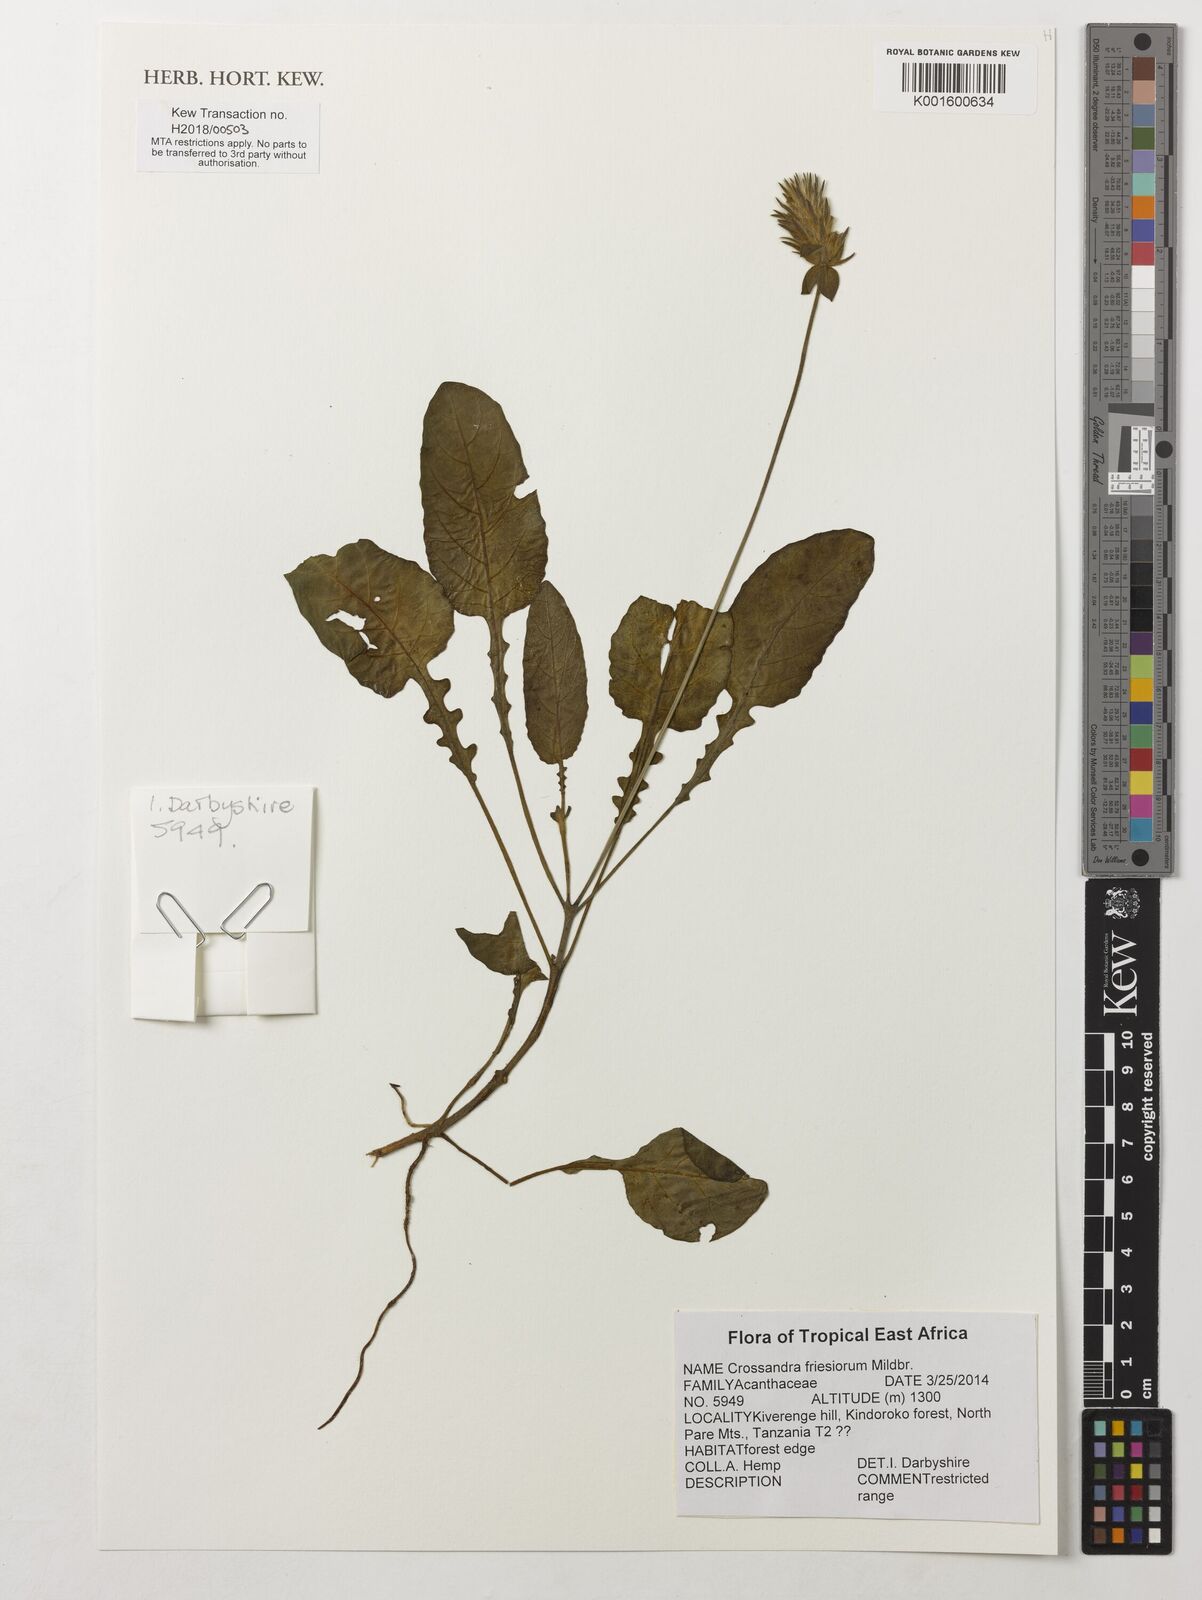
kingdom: Plantae
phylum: Tracheophyta
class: Magnoliopsida
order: Lamiales
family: Acanthaceae
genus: Crossandra
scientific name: Crossandra friesiorum
